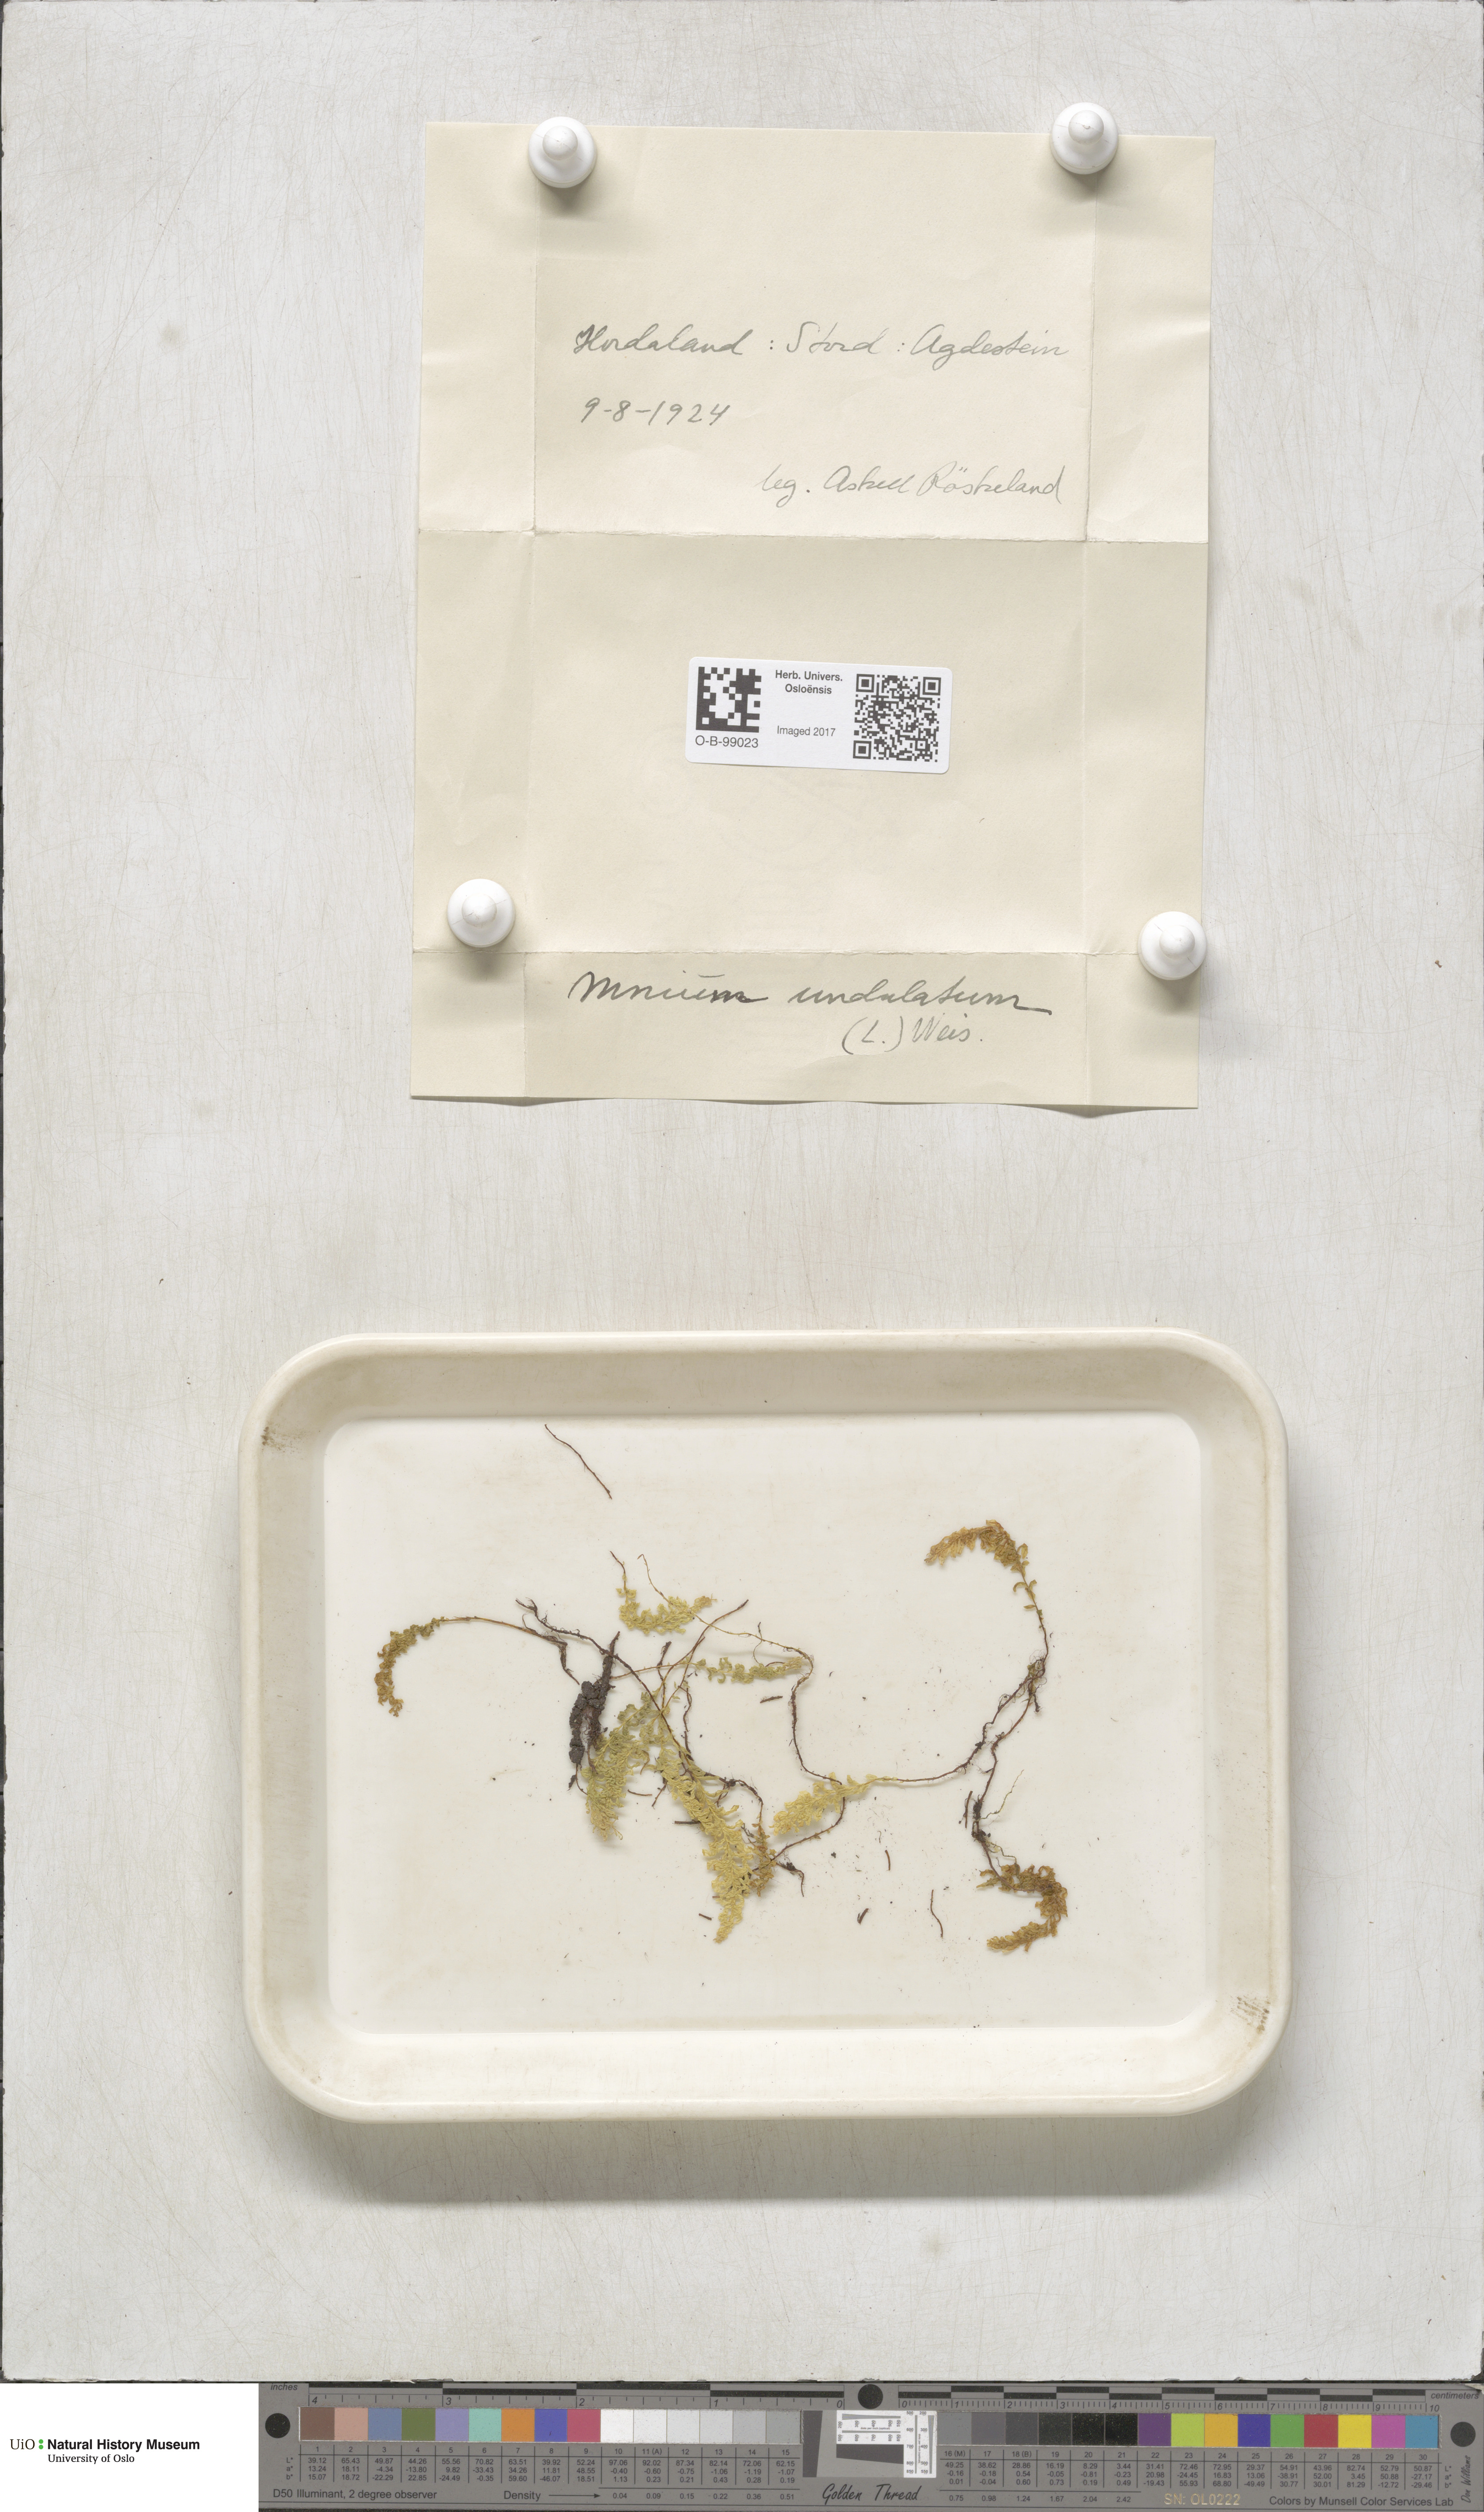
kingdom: Plantae
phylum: Bryophyta
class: Bryopsida
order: Bryales
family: Mniaceae
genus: Plagiomnium
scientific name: Plagiomnium undulatum
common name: Hart's-tongue thyme-moss
